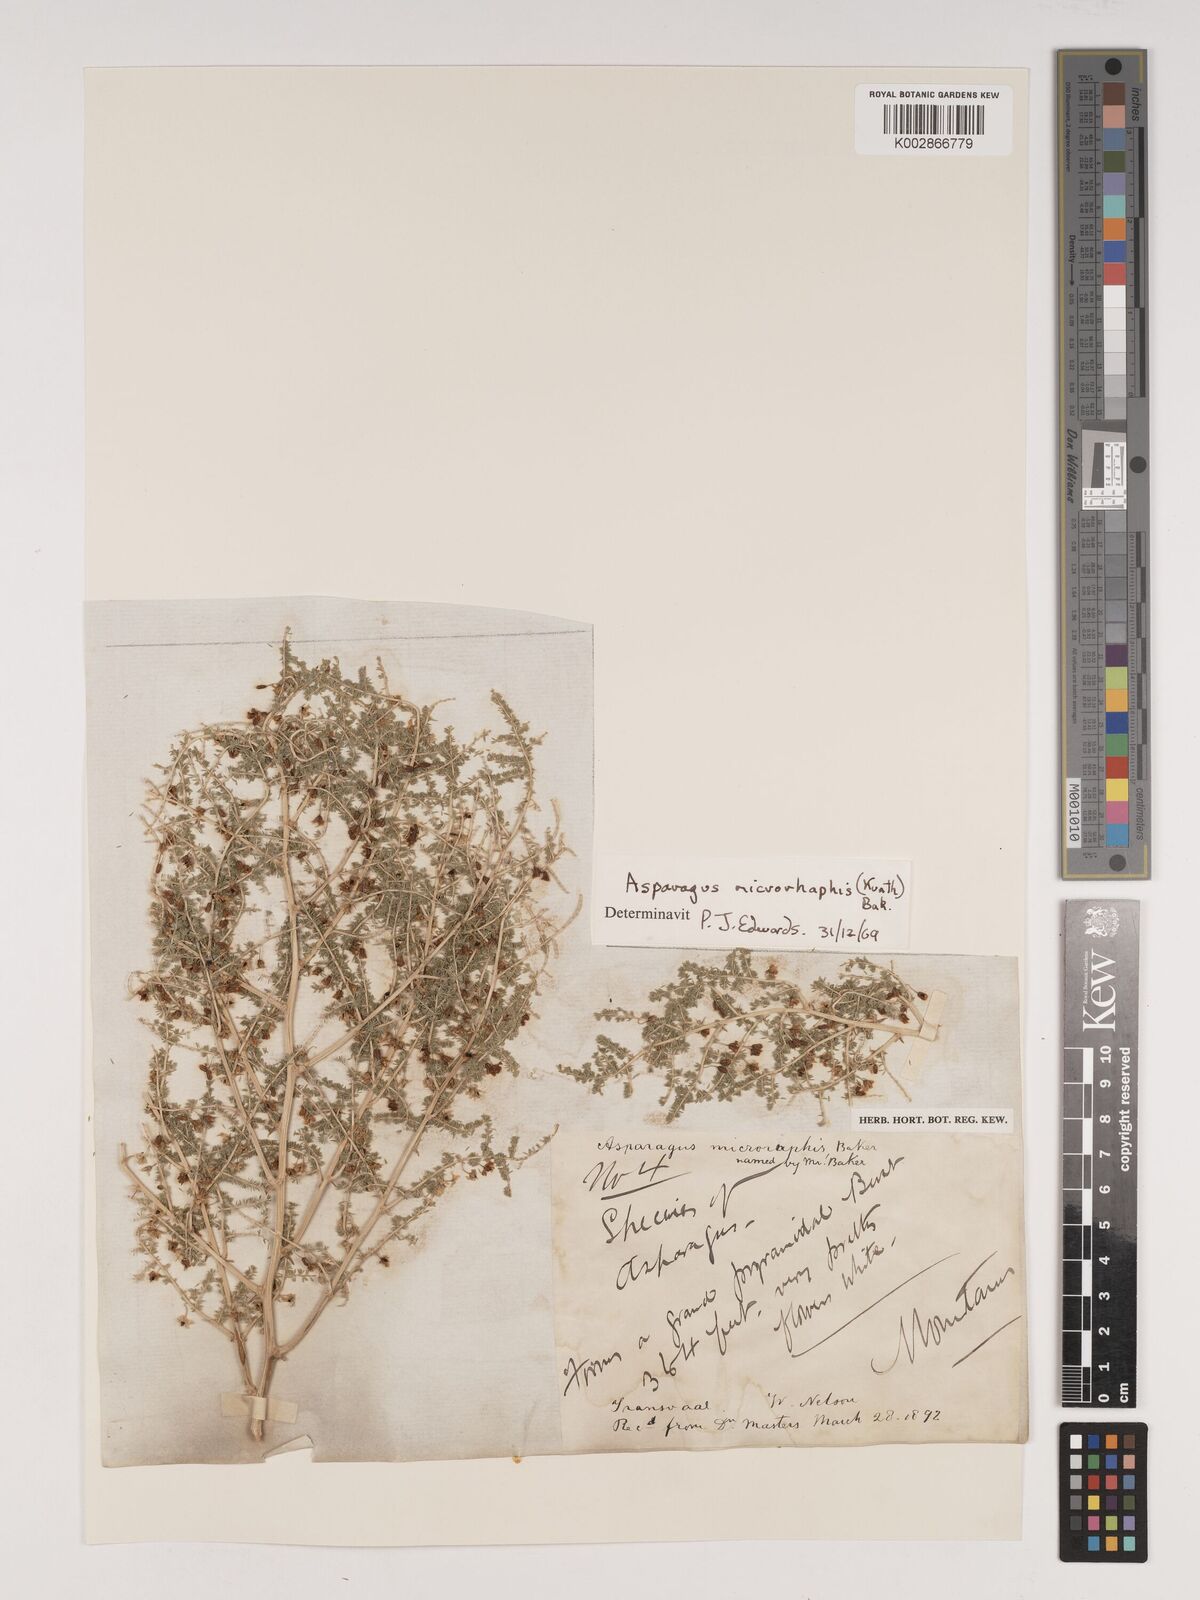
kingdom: Plantae
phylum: Tracheophyta
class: Liliopsida
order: Asparagales
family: Asparagaceae
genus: Asparagus
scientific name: Asparagus microraphis
